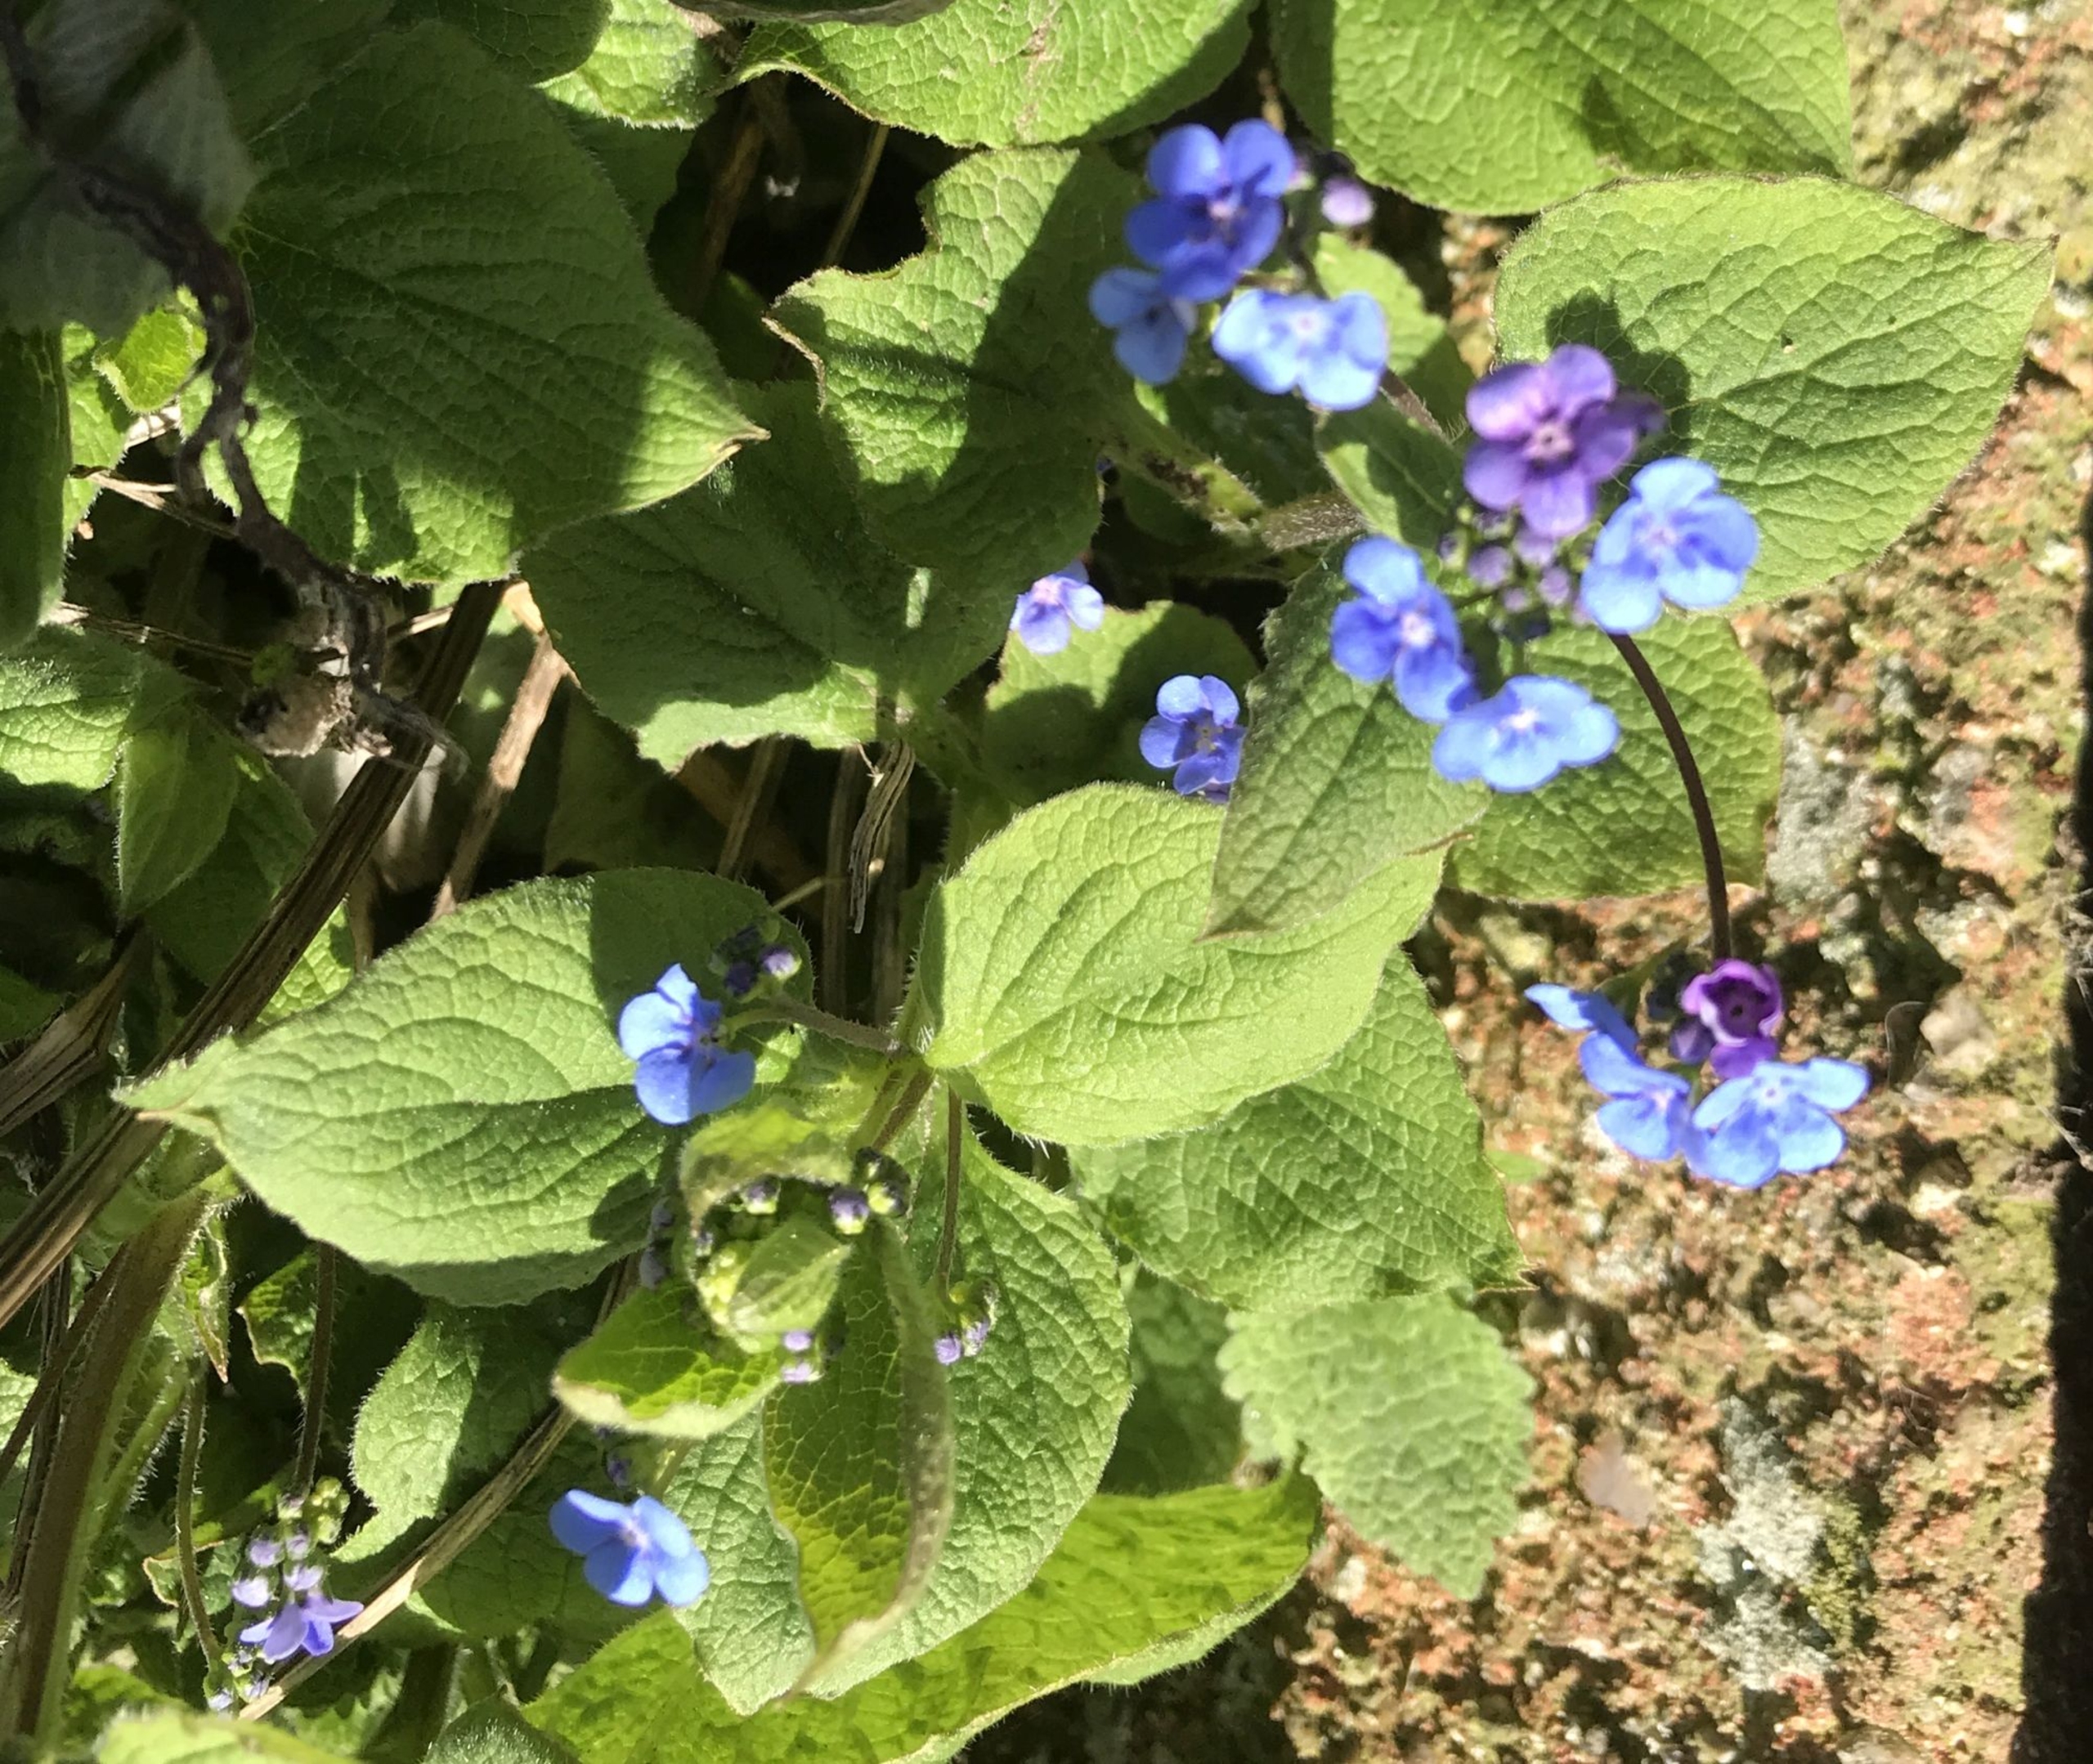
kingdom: Plantae
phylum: Tracheophyta
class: Magnoliopsida
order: Boraginales
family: Boraginaceae
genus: Brunnera
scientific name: Brunnera macrophylla
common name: Kærmindesøster
